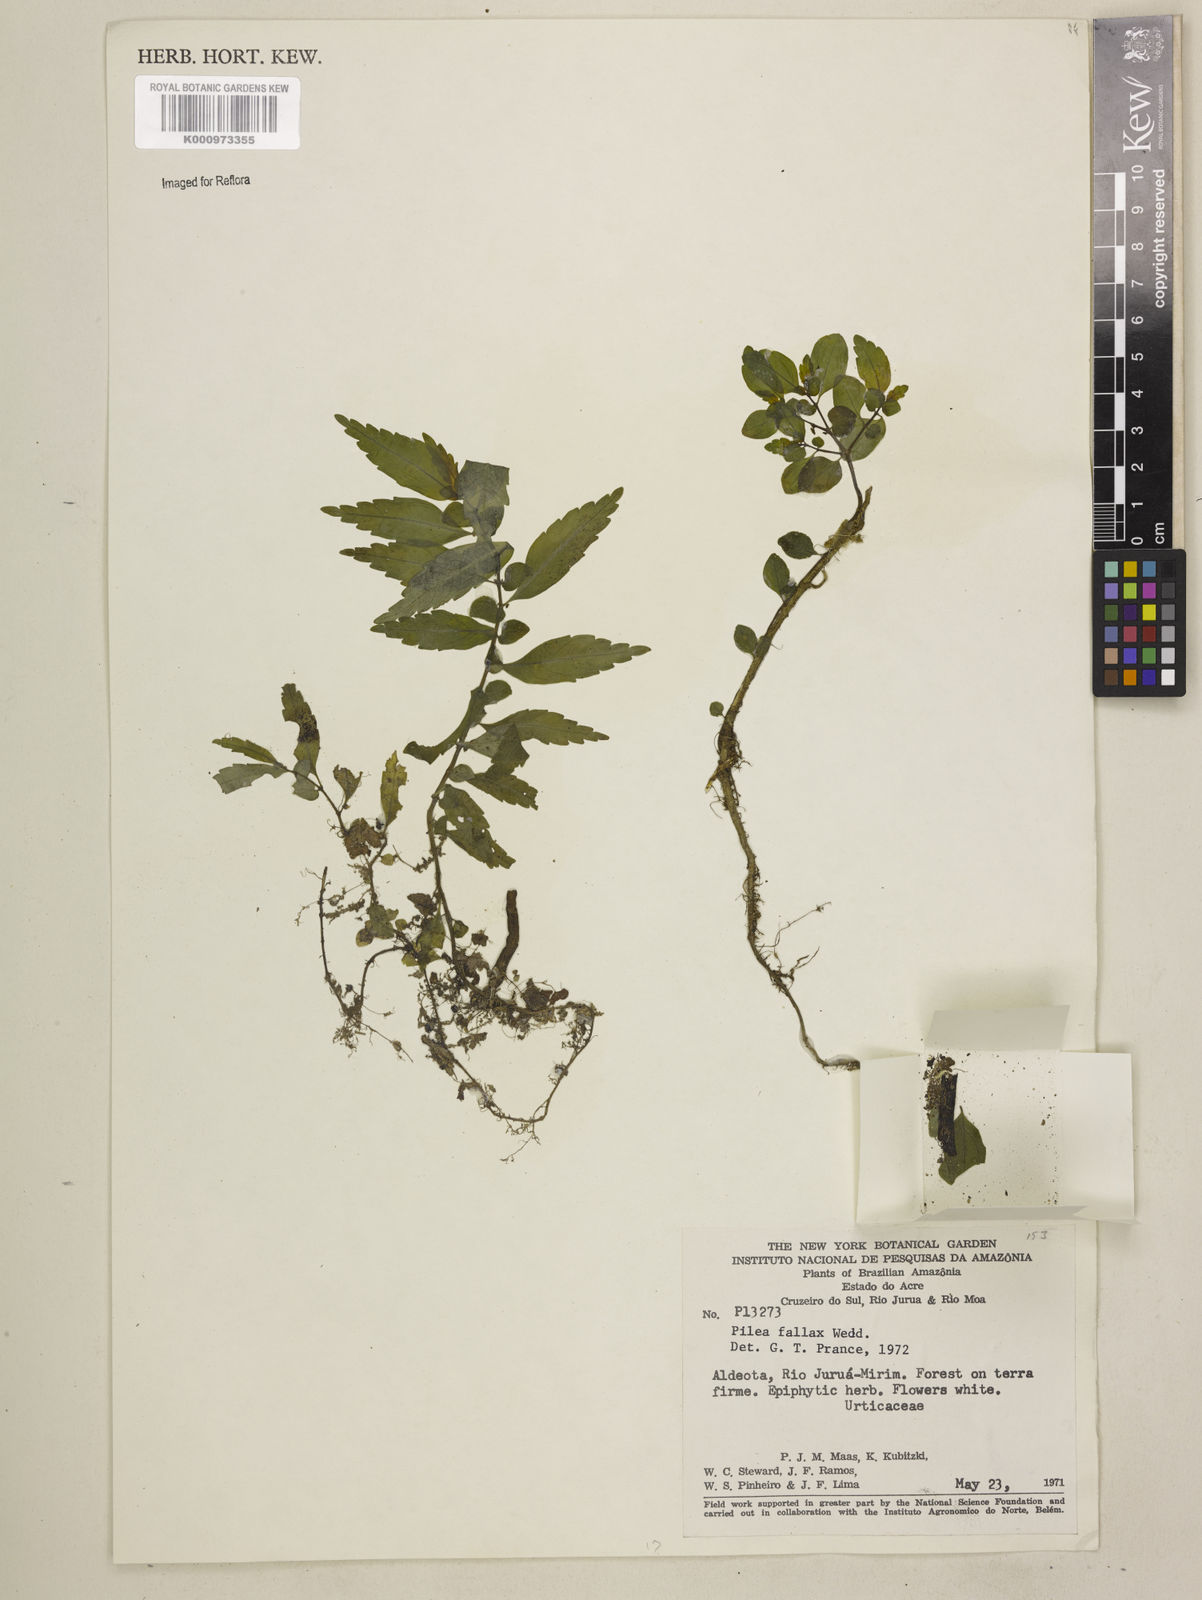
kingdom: Plantae
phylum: Tracheophyta
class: Magnoliopsida
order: Rosales
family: Urticaceae
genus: Pilea
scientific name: Pilea imparifolia
